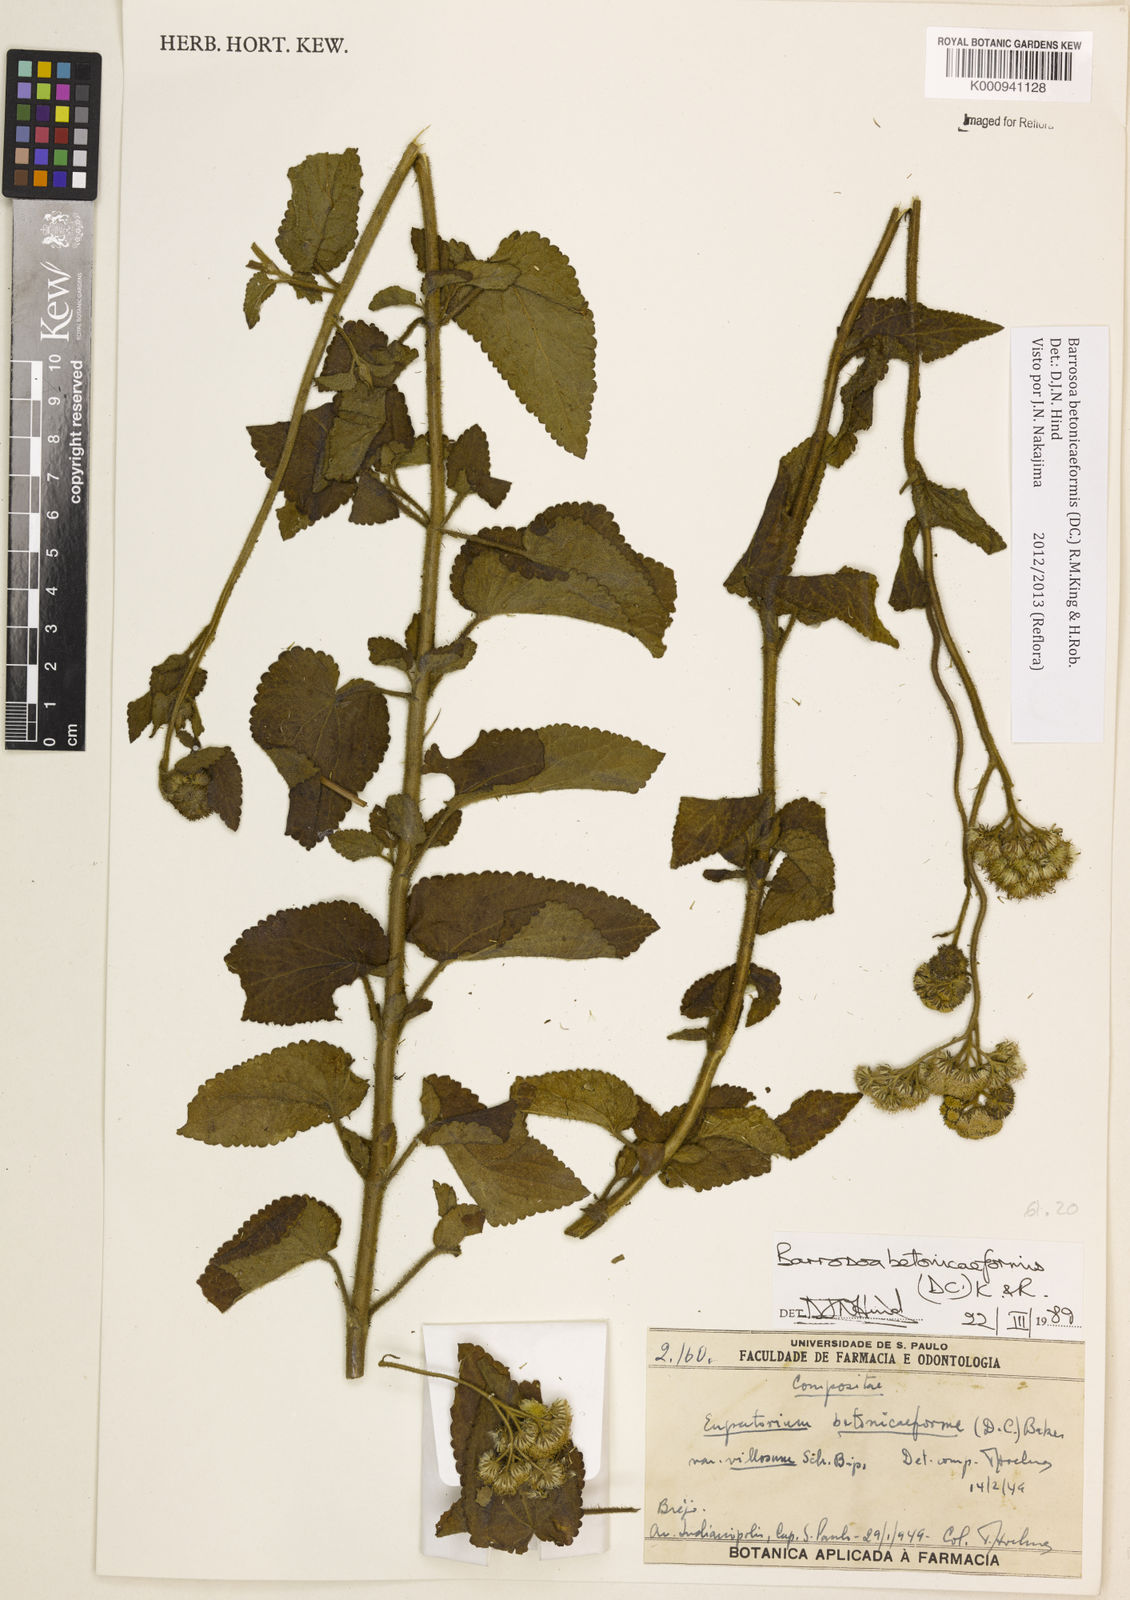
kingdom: Plantae
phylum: Tracheophyta
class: Magnoliopsida
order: Asterales
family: Asteraceae
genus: Barrosoa
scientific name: Barrosoa betoniciformis
